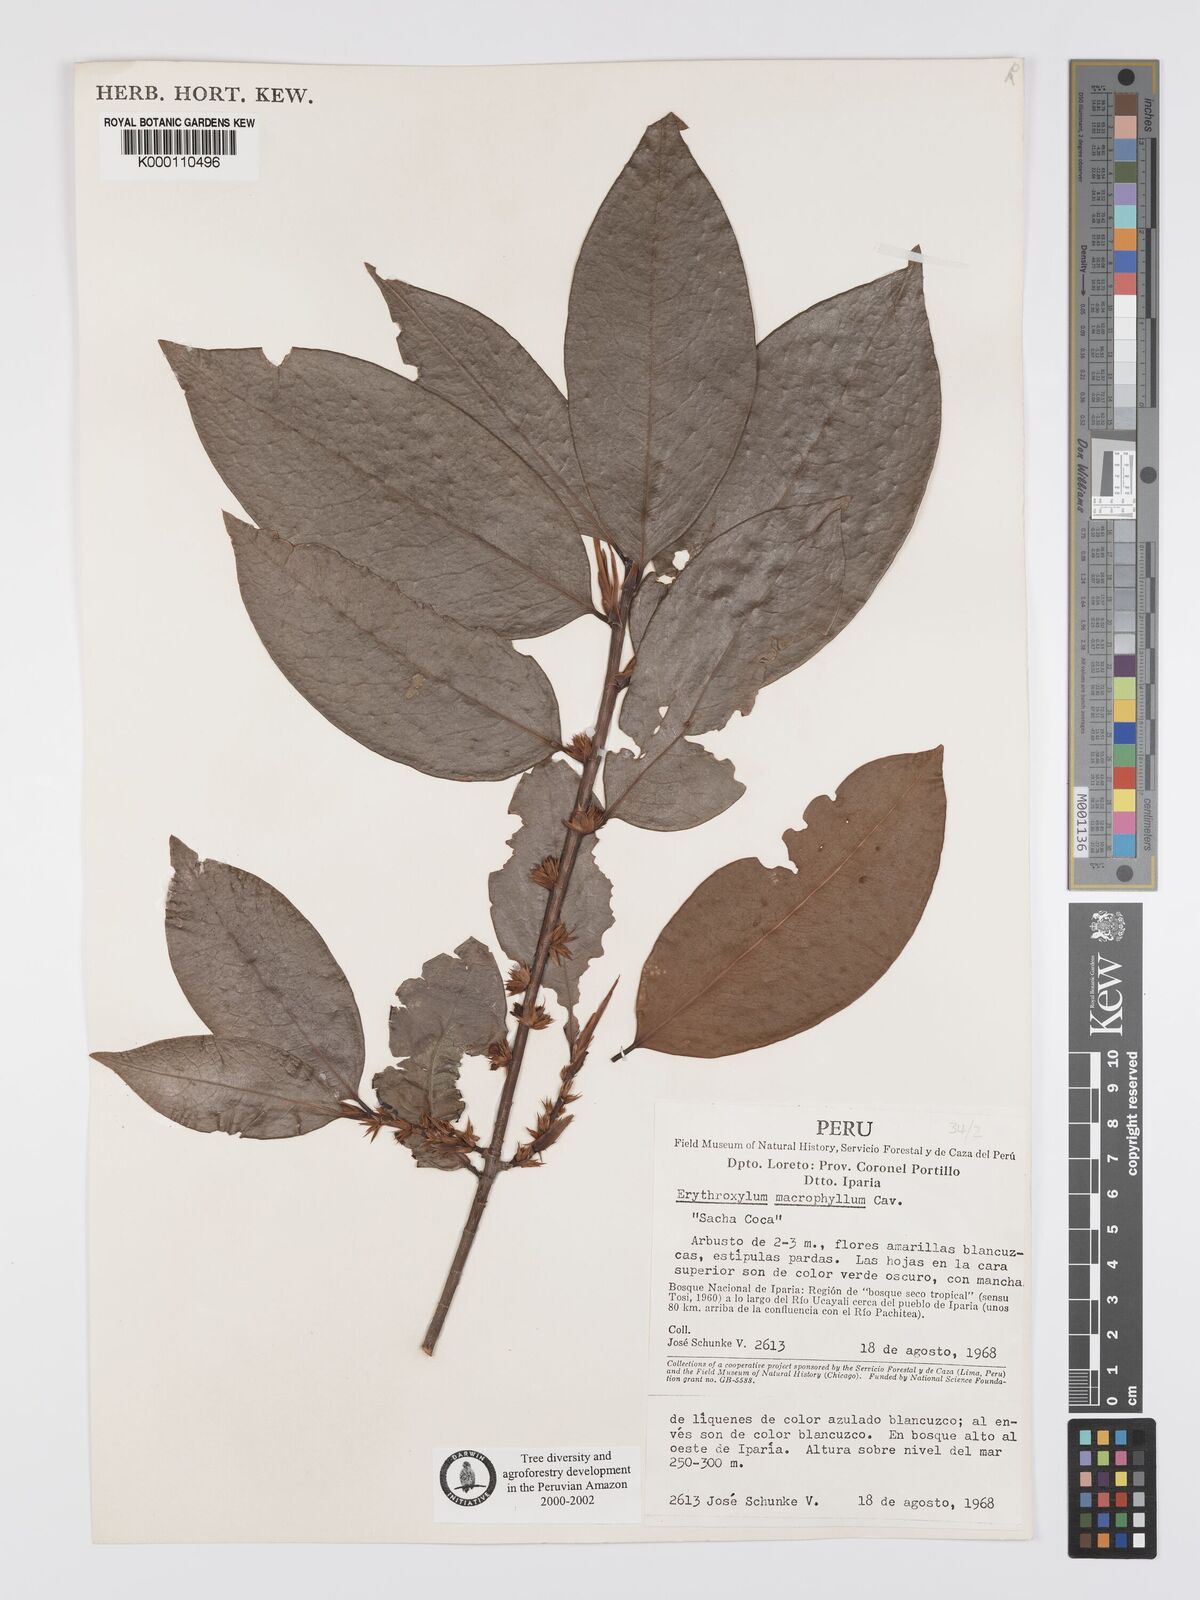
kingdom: Plantae
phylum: Tracheophyta
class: Magnoliopsida
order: Malpighiales
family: Erythroxylaceae
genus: Erythroxylum
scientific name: Erythroxylum
